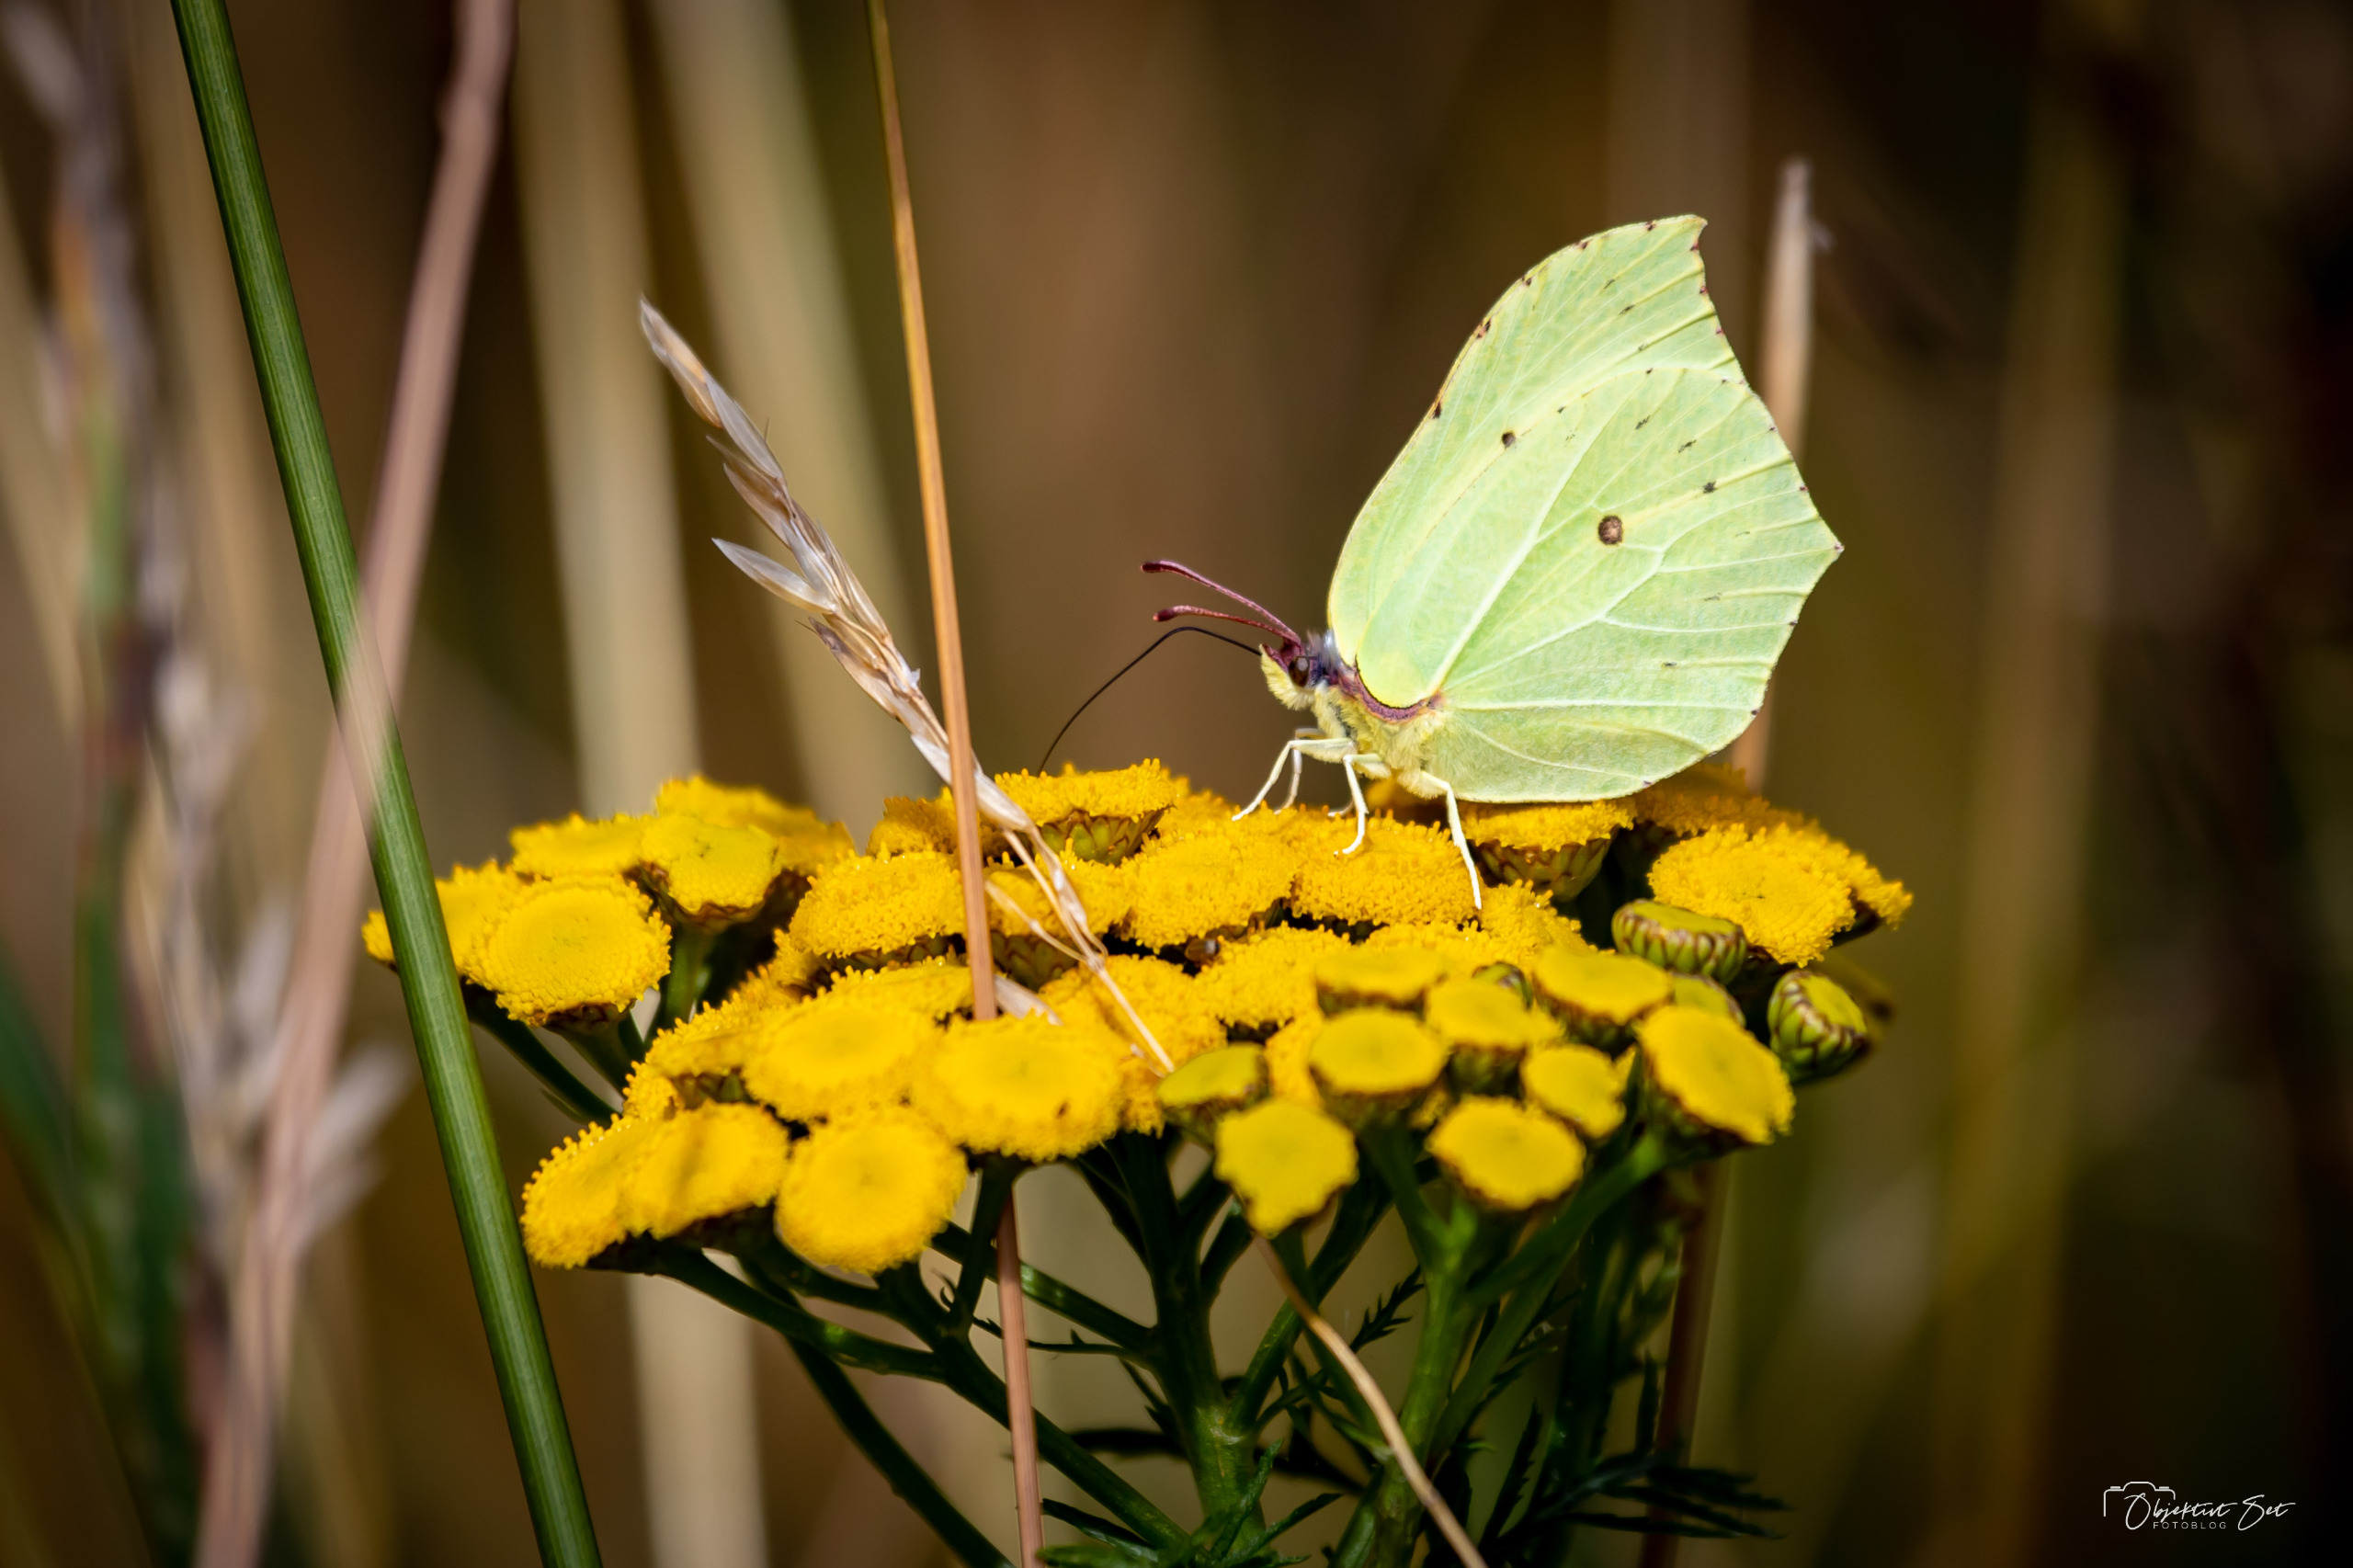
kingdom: Animalia
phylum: Arthropoda
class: Insecta
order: Lepidoptera
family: Pieridae
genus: Gonepteryx
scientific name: Gonepteryx rhamni
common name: Citronsommerfugl
